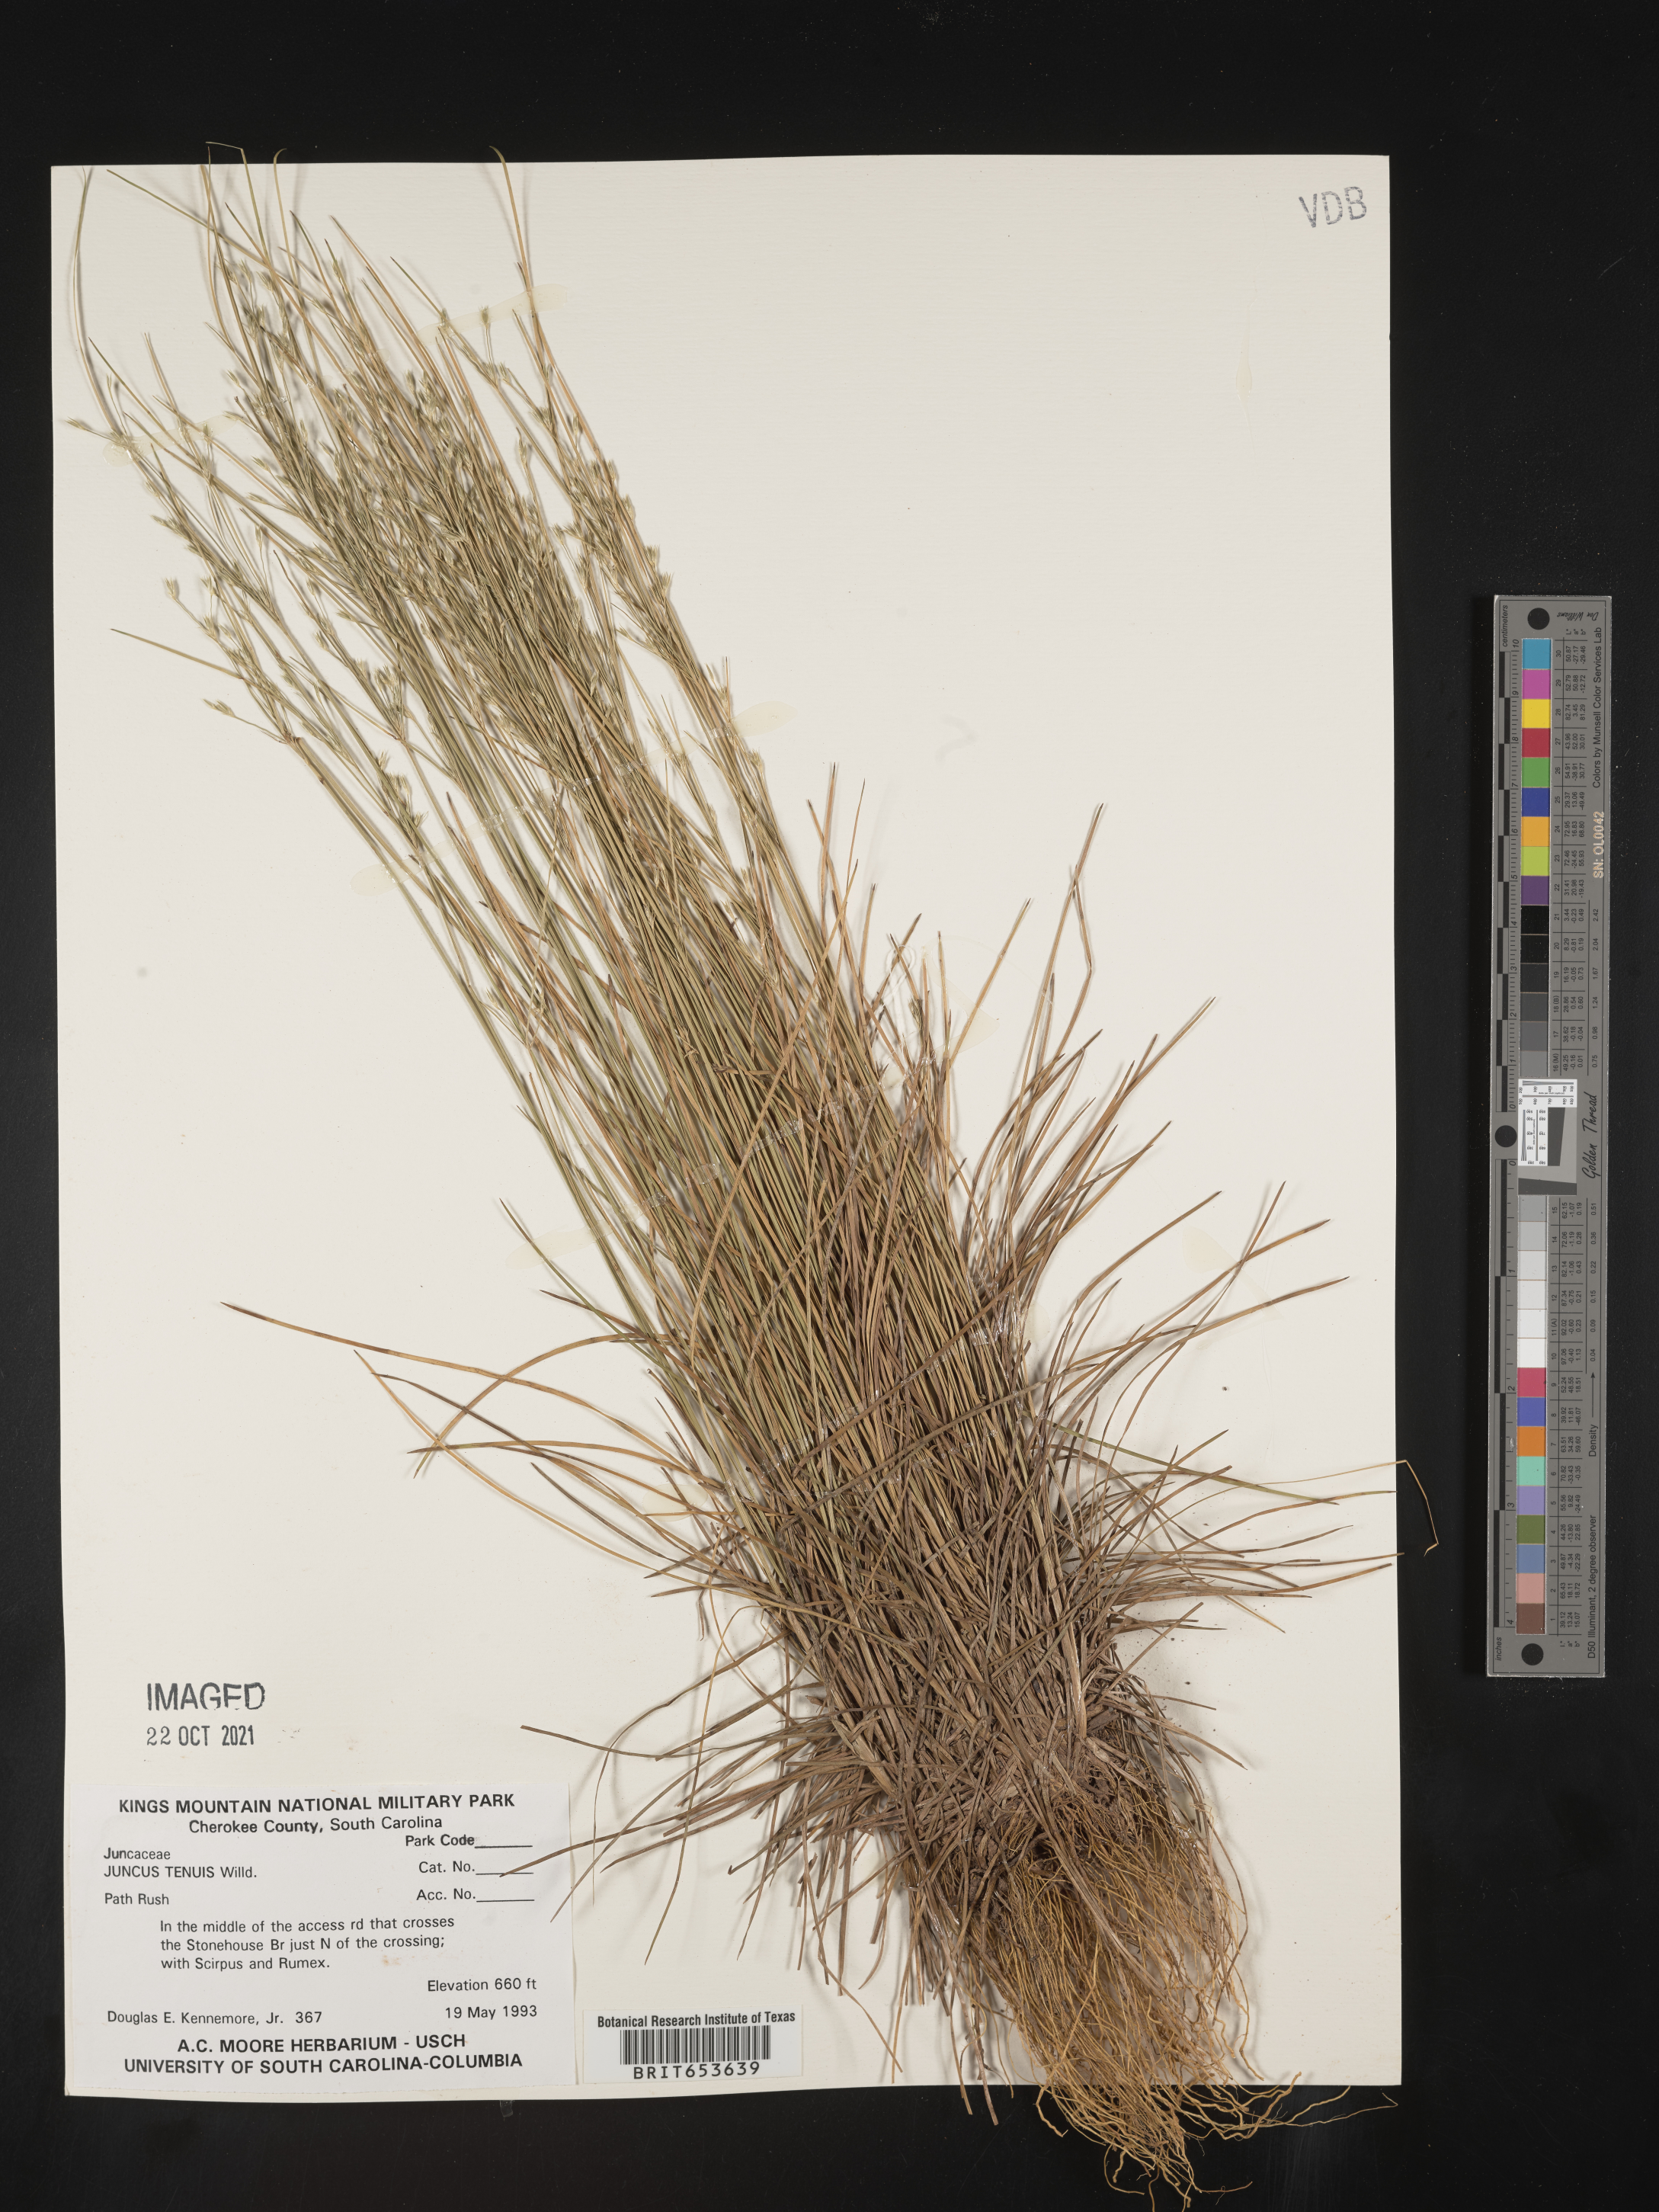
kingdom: Plantae
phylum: Tracheophyta
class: Liliopsida
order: Poales
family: Juncaceae
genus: Juncus
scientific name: Juncus tenuis
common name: Slender rush
